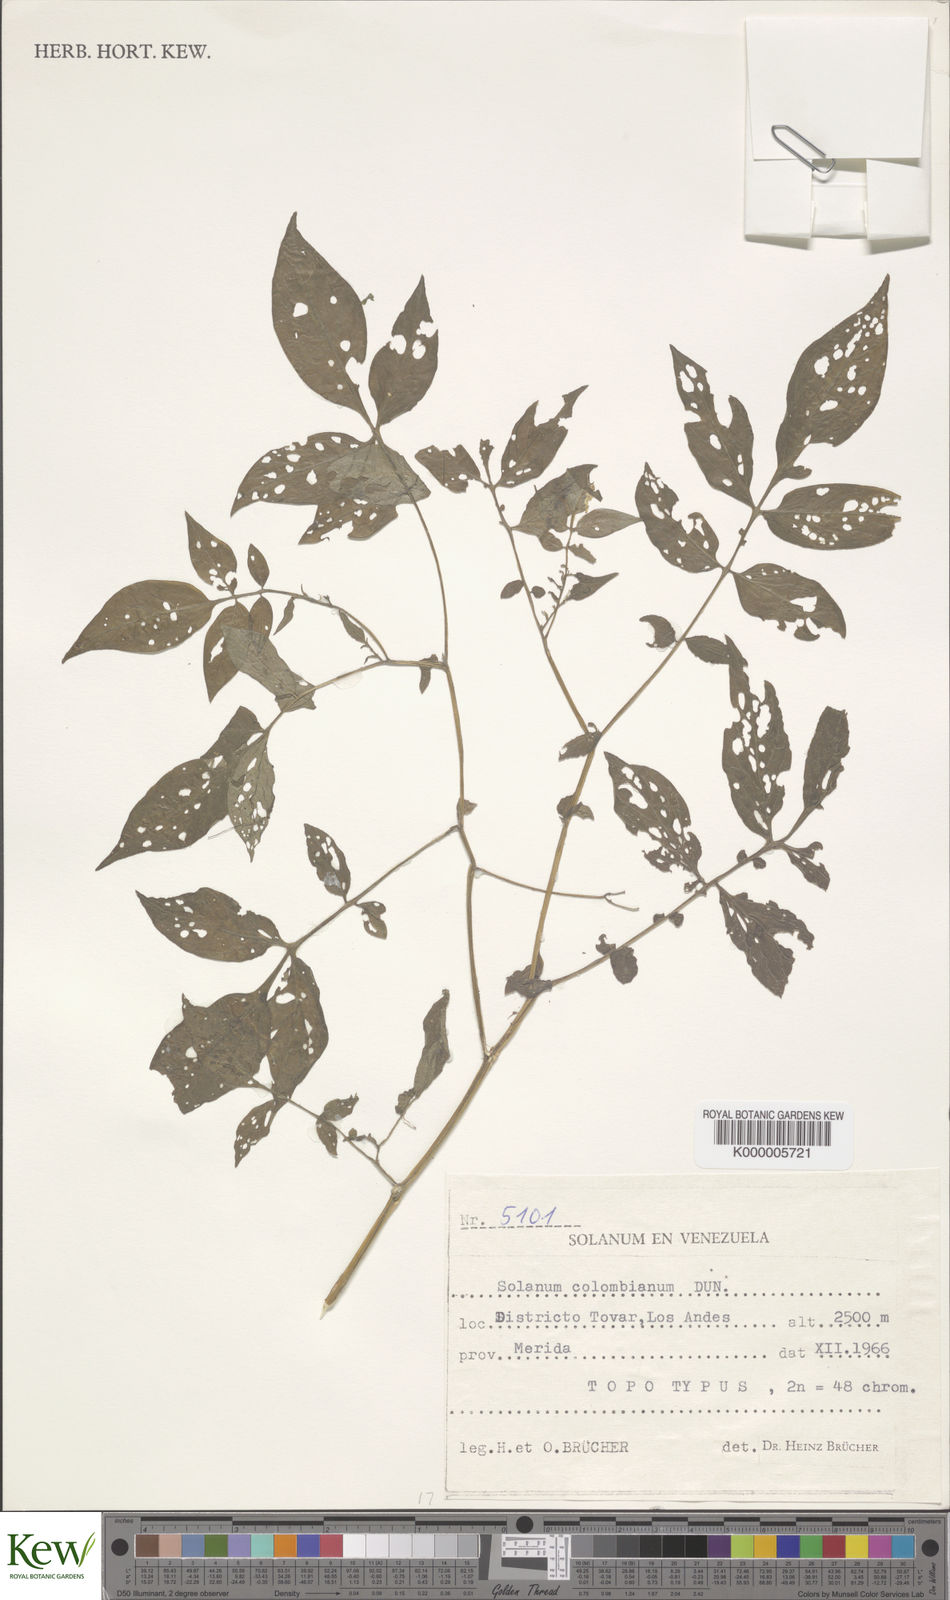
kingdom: Plantae
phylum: Tracheophyta
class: Magnoliopsida
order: Solanales
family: Solanaceae
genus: Solanum
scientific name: Solanum colombianum
